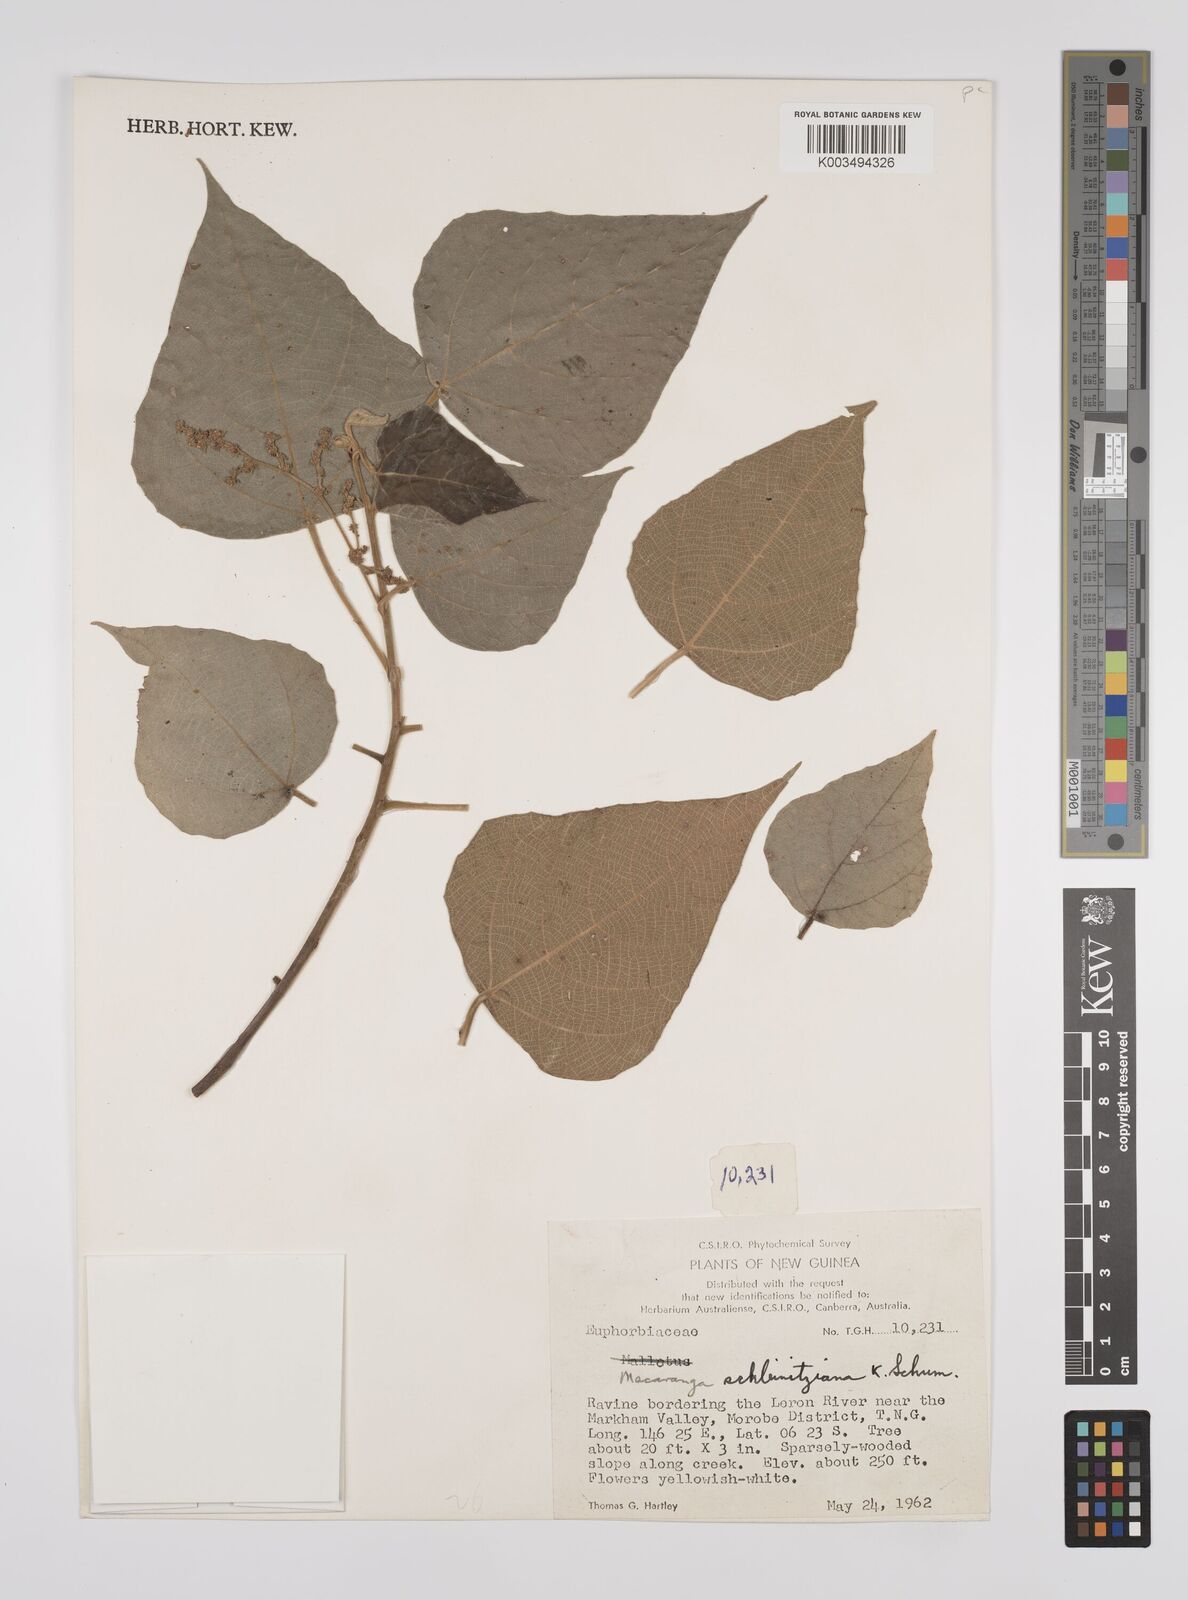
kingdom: Plantae
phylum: Tracheophyta
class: Magnoliopsida
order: Malpighiales
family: Euphorbiaceae
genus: Macaranga
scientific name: Macaranga involucrata
